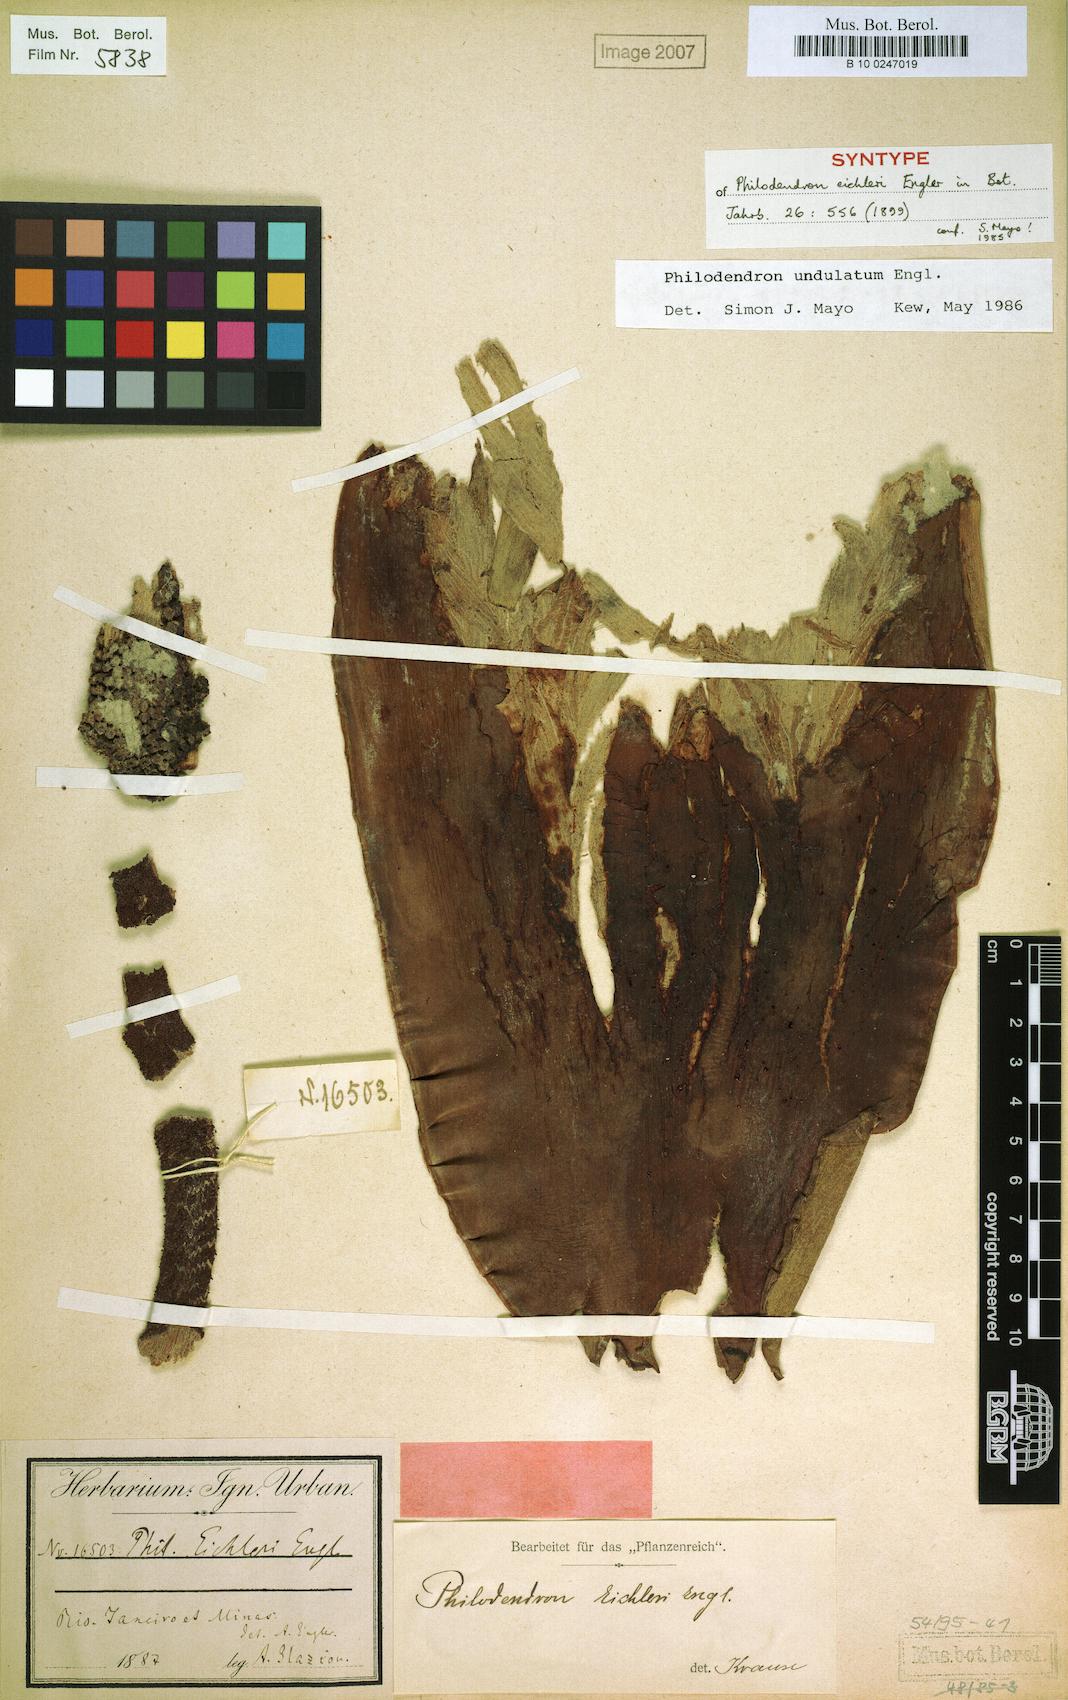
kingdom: Plantae
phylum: Tracheophyta
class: Liliopsida
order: Alismatales
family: Araceae
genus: Thaumatophyllum
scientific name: Thaumatophyllum undulatum
